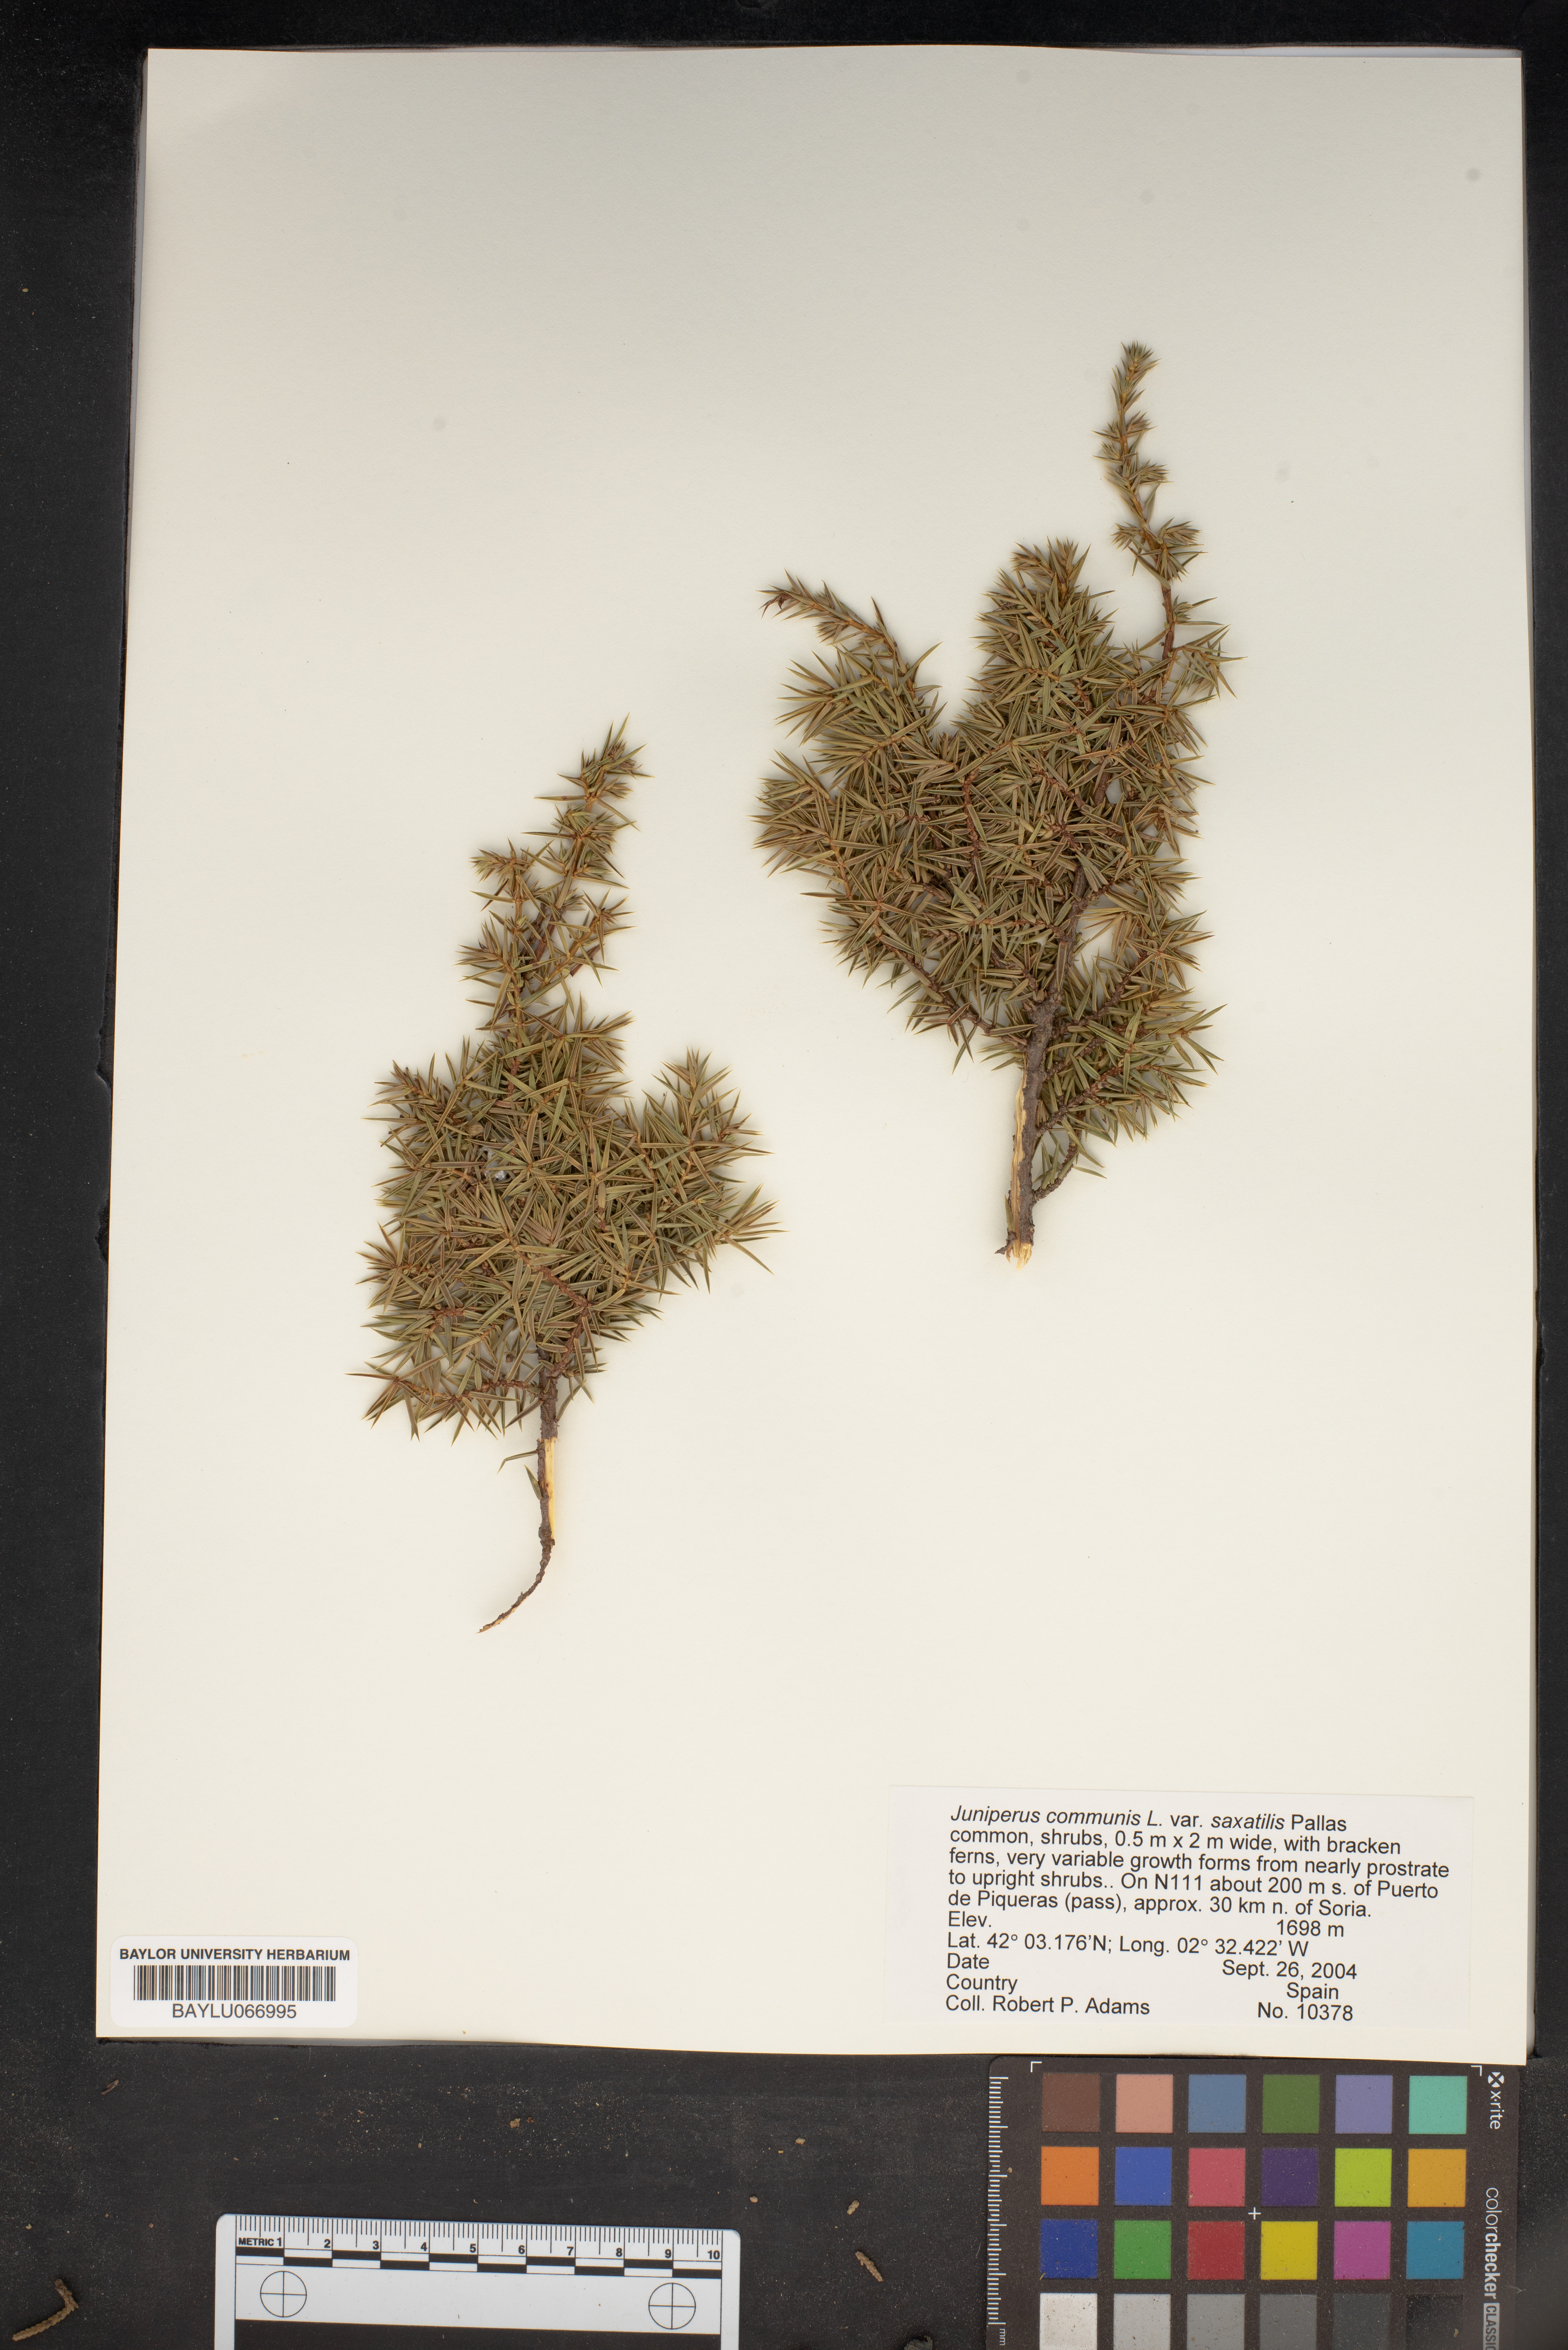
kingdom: Plantae
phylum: Tracheophyta
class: Pinopsida
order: Pinales
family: Cupressaceae
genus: Juniperus
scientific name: Juniperus communis
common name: Common juniper
